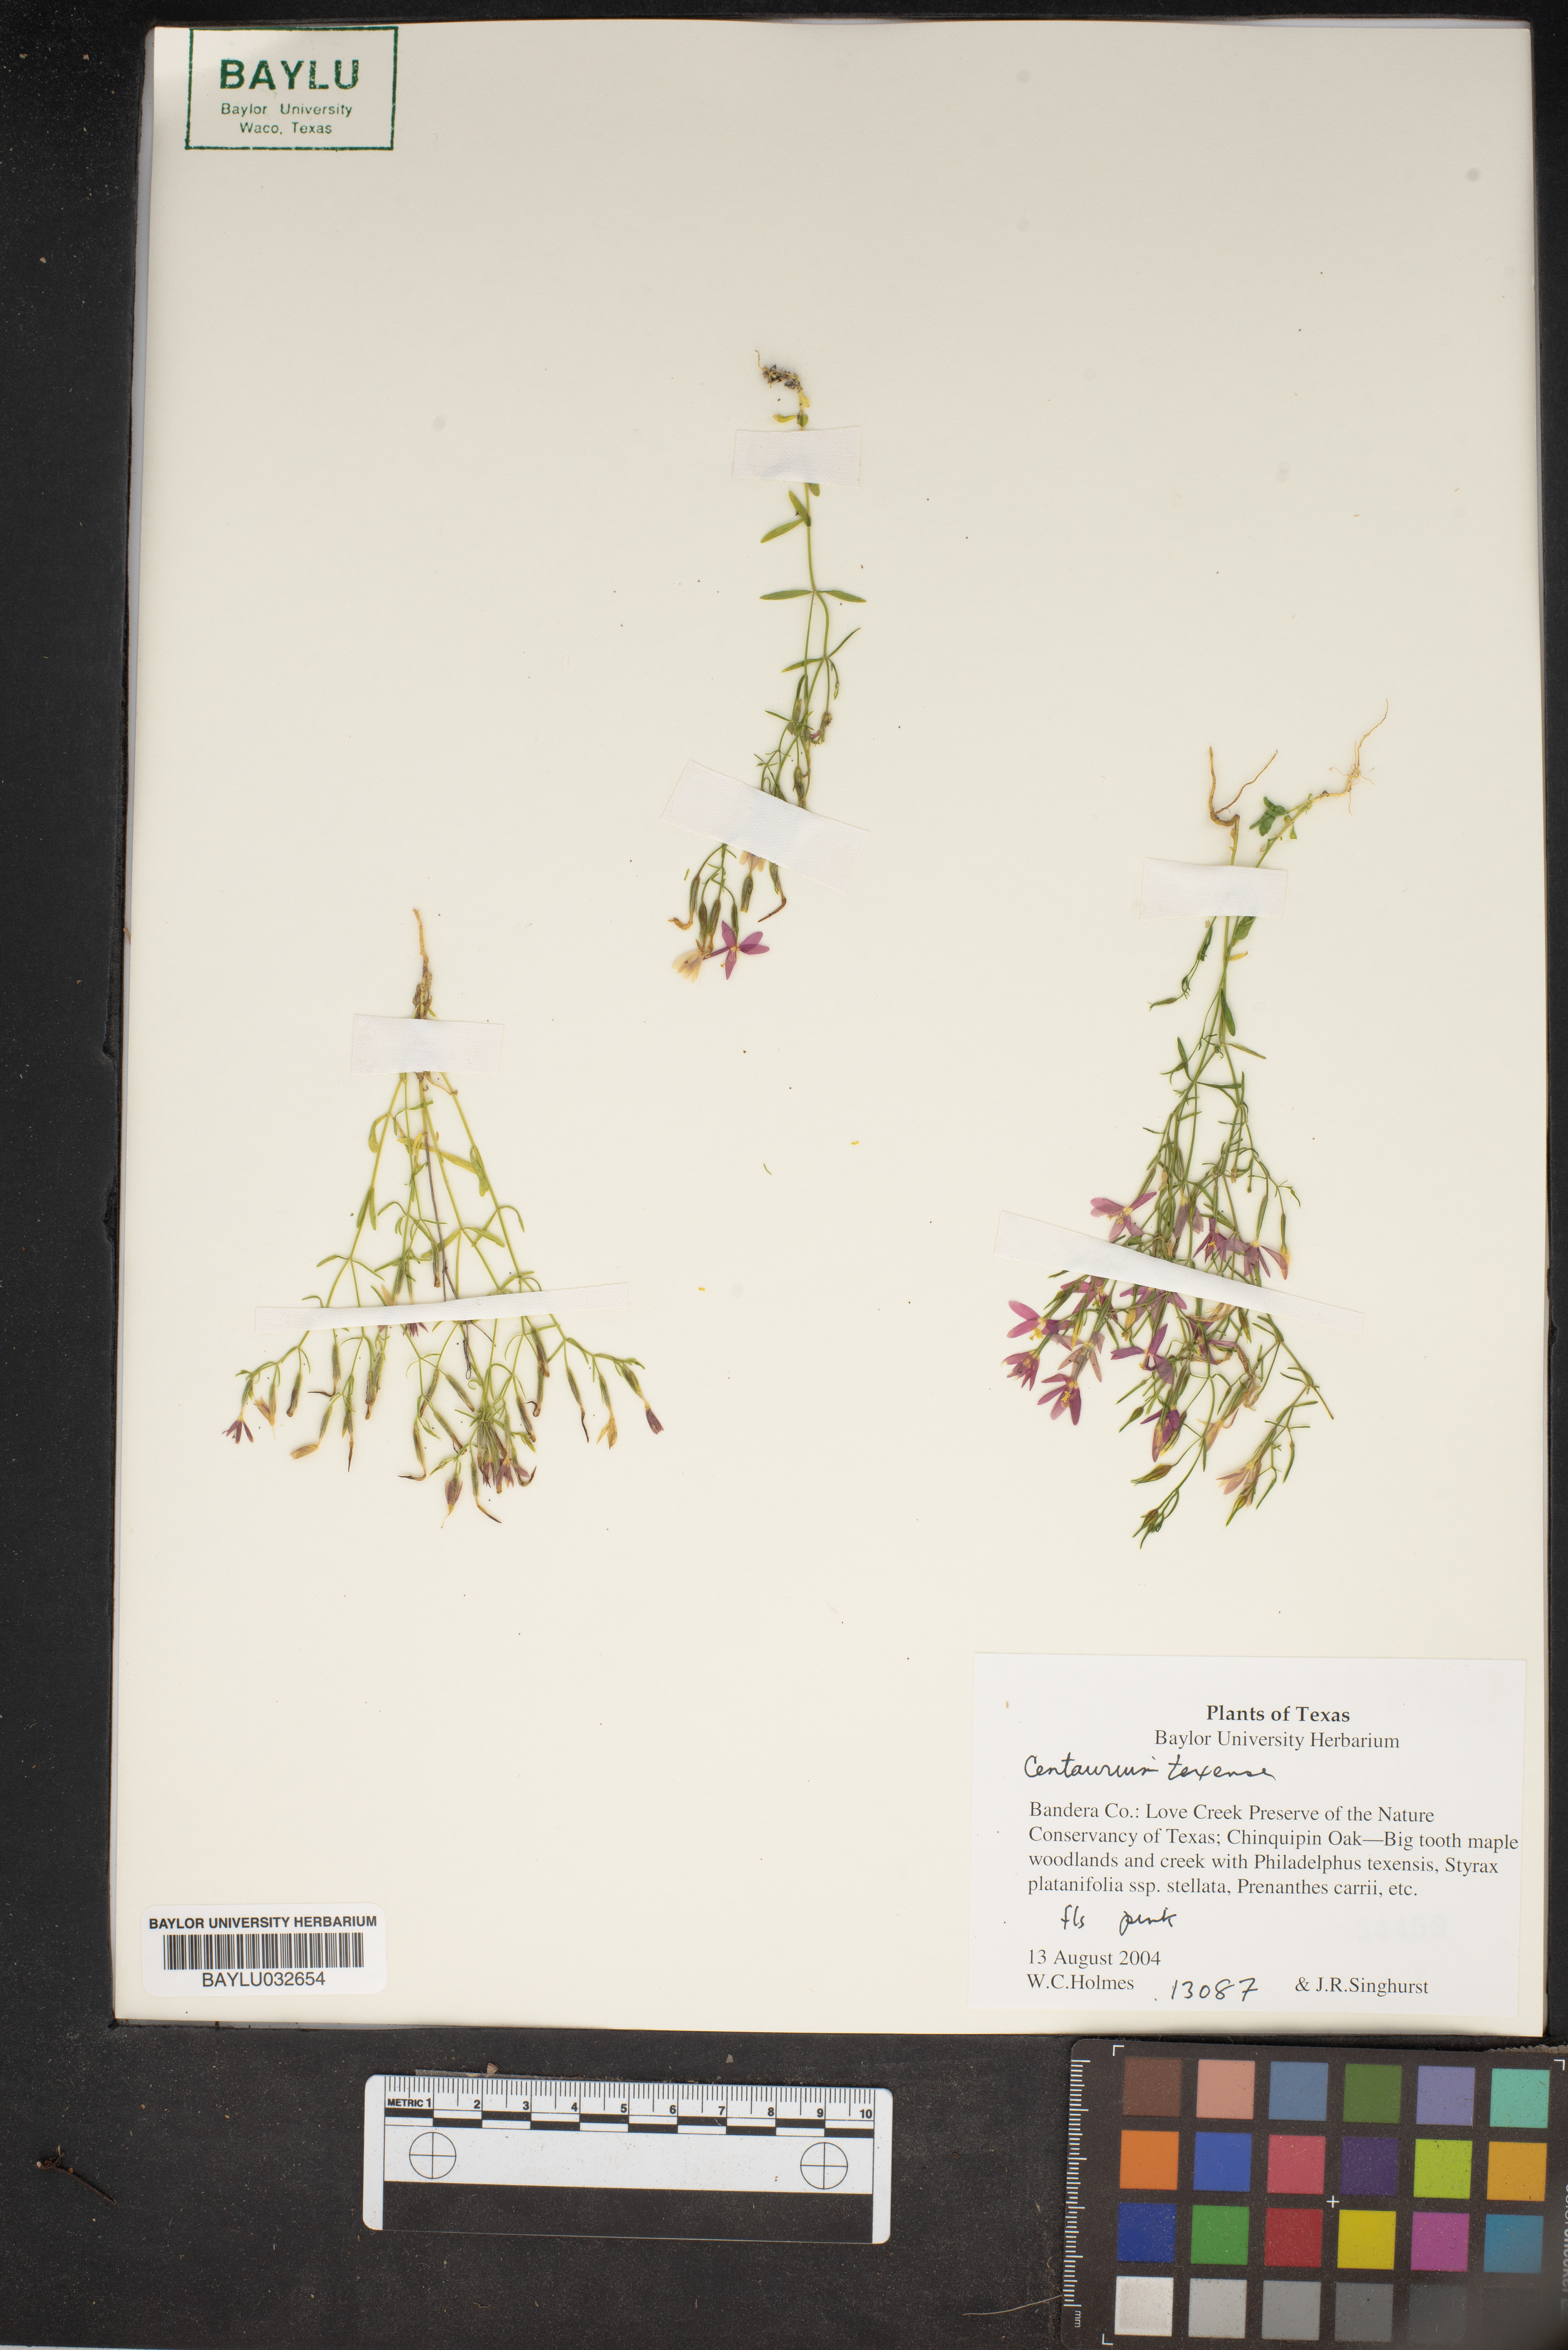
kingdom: Plantae
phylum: Tracheophyta
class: Magnoliopsida
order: Gentianales
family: Gentianaceae
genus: Zeltnera
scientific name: Zeltnera texensis
